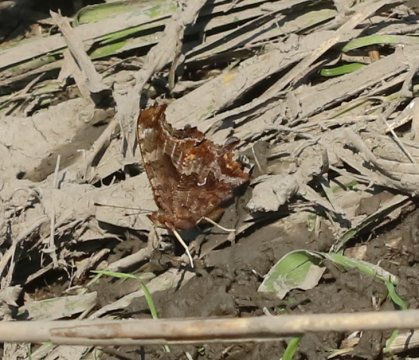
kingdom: Animalia
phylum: Arthropoda
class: Insecta
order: Lepidoptera
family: Nymphalidae
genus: Polygonia
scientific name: Polygonia comma
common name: Eastern Comma
